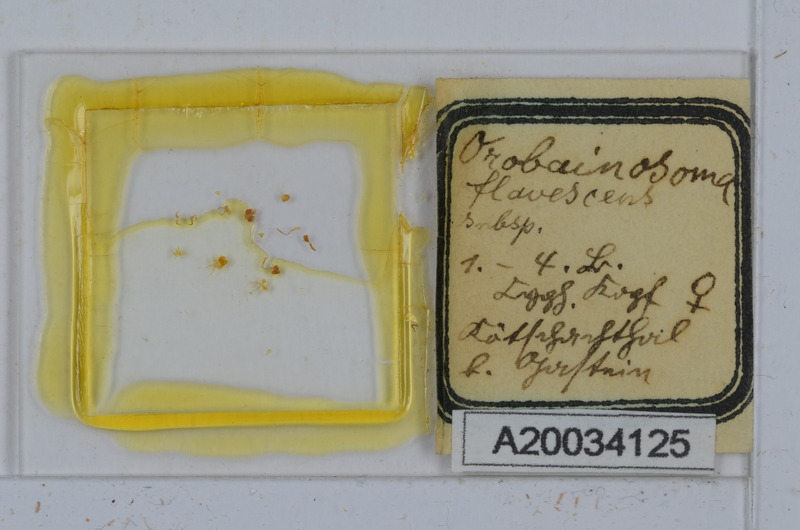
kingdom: Animalia
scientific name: Animalia
